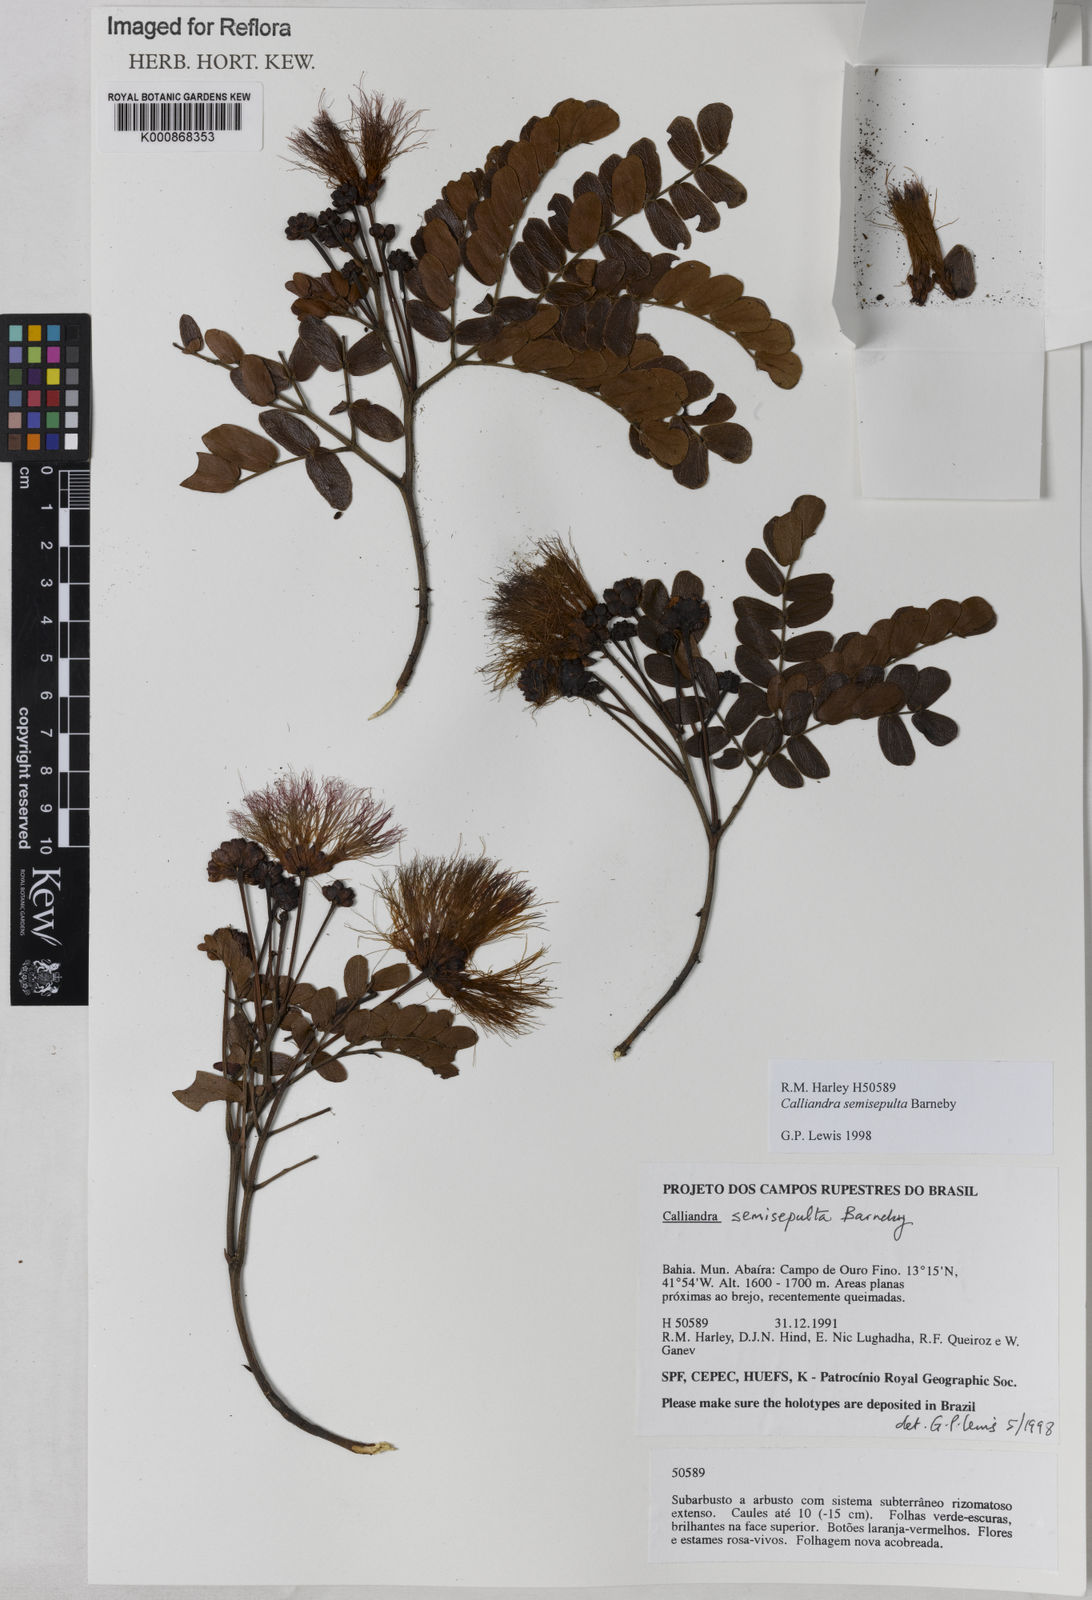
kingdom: Plantae
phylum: Tracheophyta
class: Magnoliopsida
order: Fabales
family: Fabaceae
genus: Calliandra
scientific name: Calliandra semisepulta
